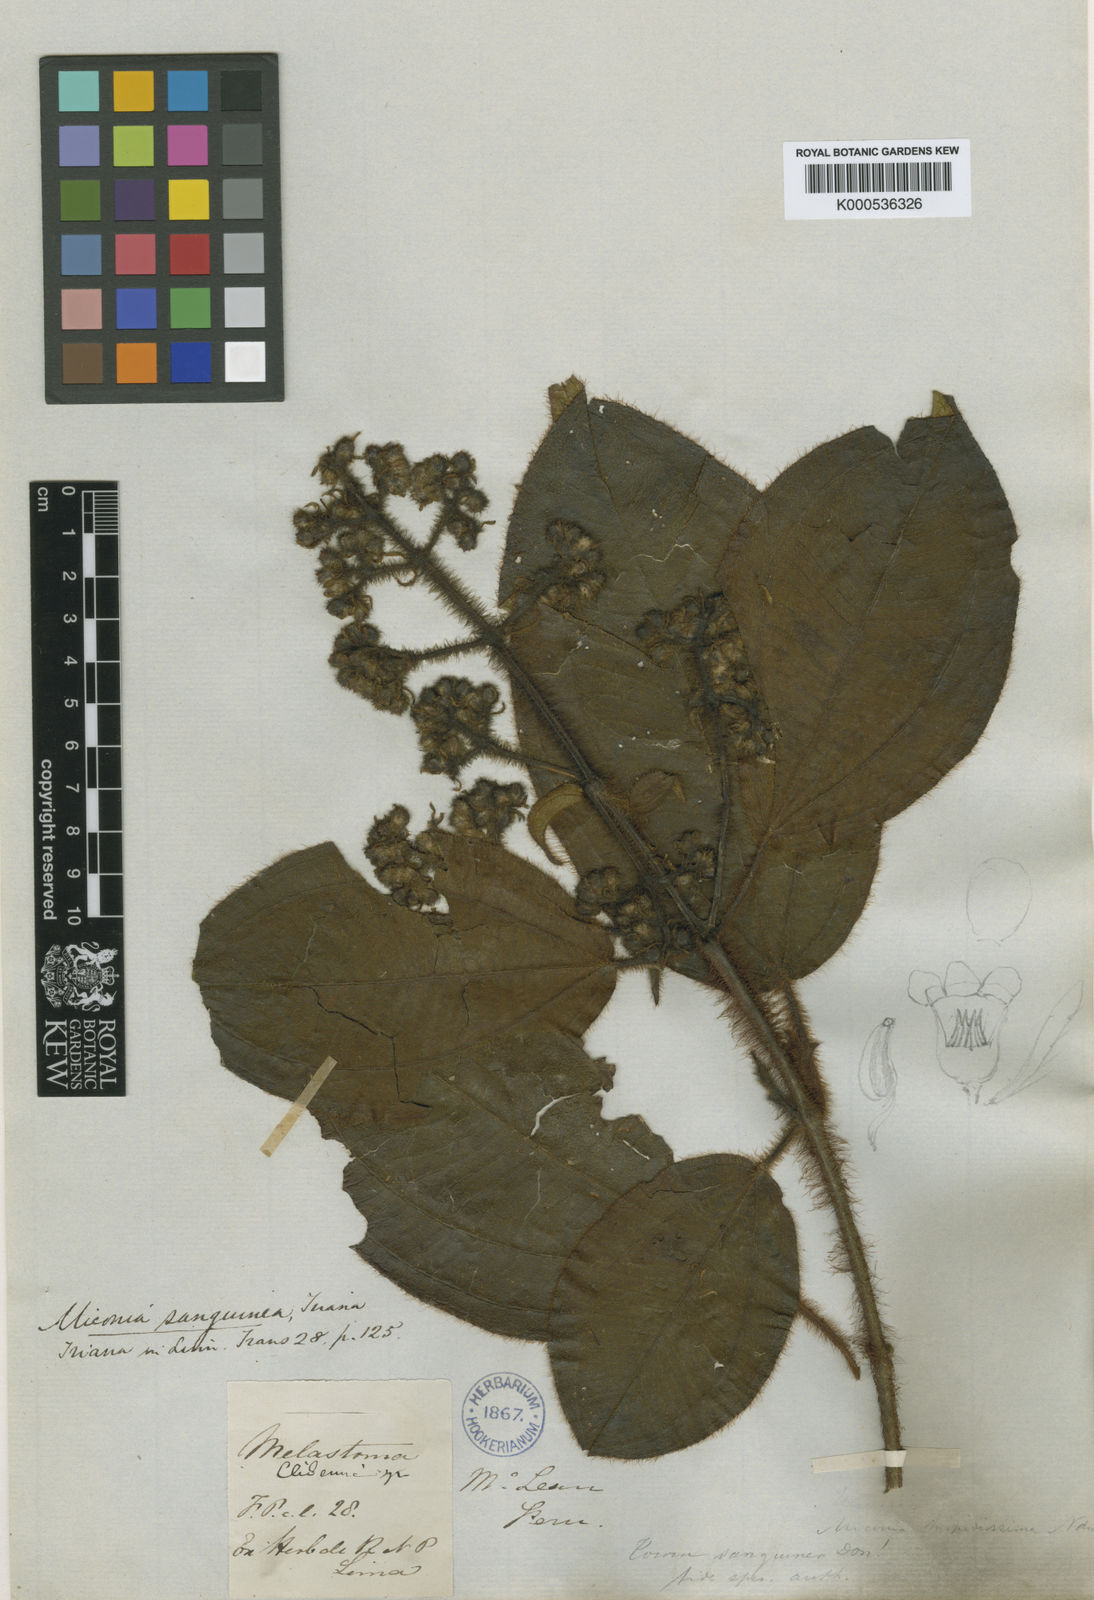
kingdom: Plantae
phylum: Tracheophyta
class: Magnoliopsida
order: Myrtales
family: Melastomataceae
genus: Miconia
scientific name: Miconia sanguinea
